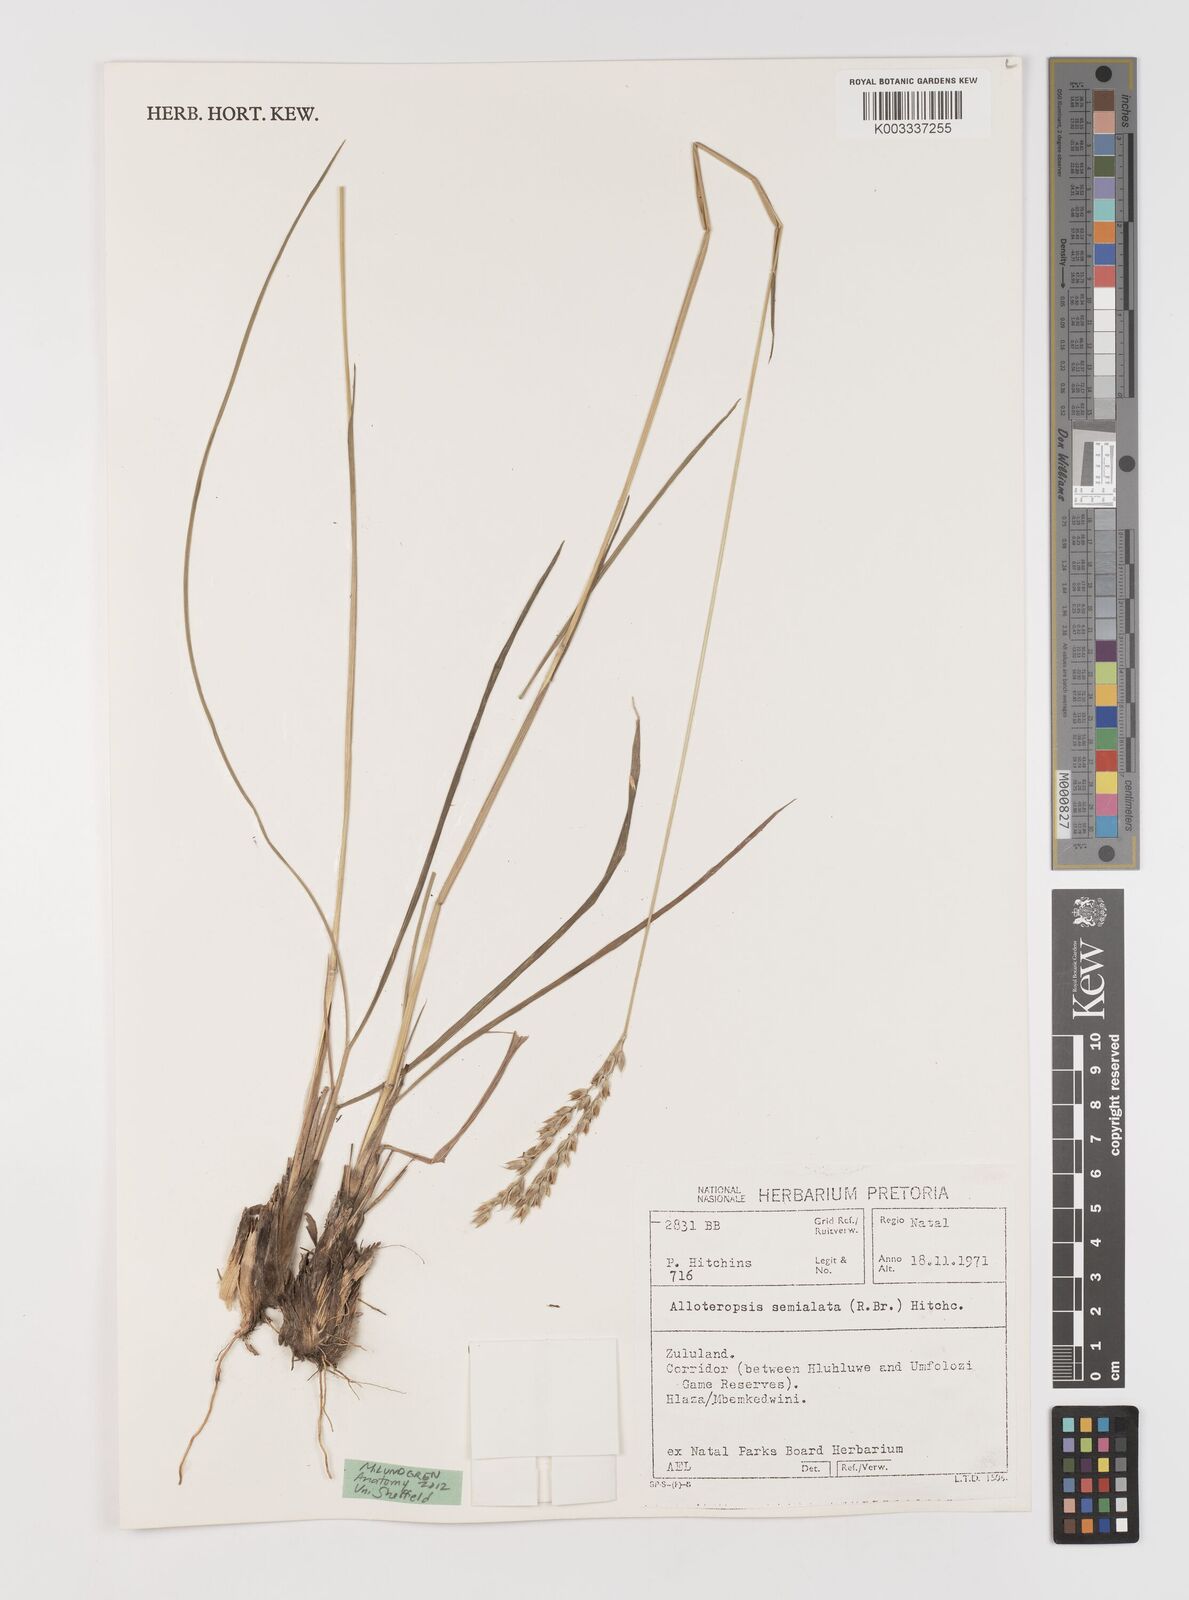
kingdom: Plantae
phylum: Tracheophyta
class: Liliopsida
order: Poales
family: Poaceae
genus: Alloteropsis
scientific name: Alloteropsis semialata
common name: Cockatoo grass
